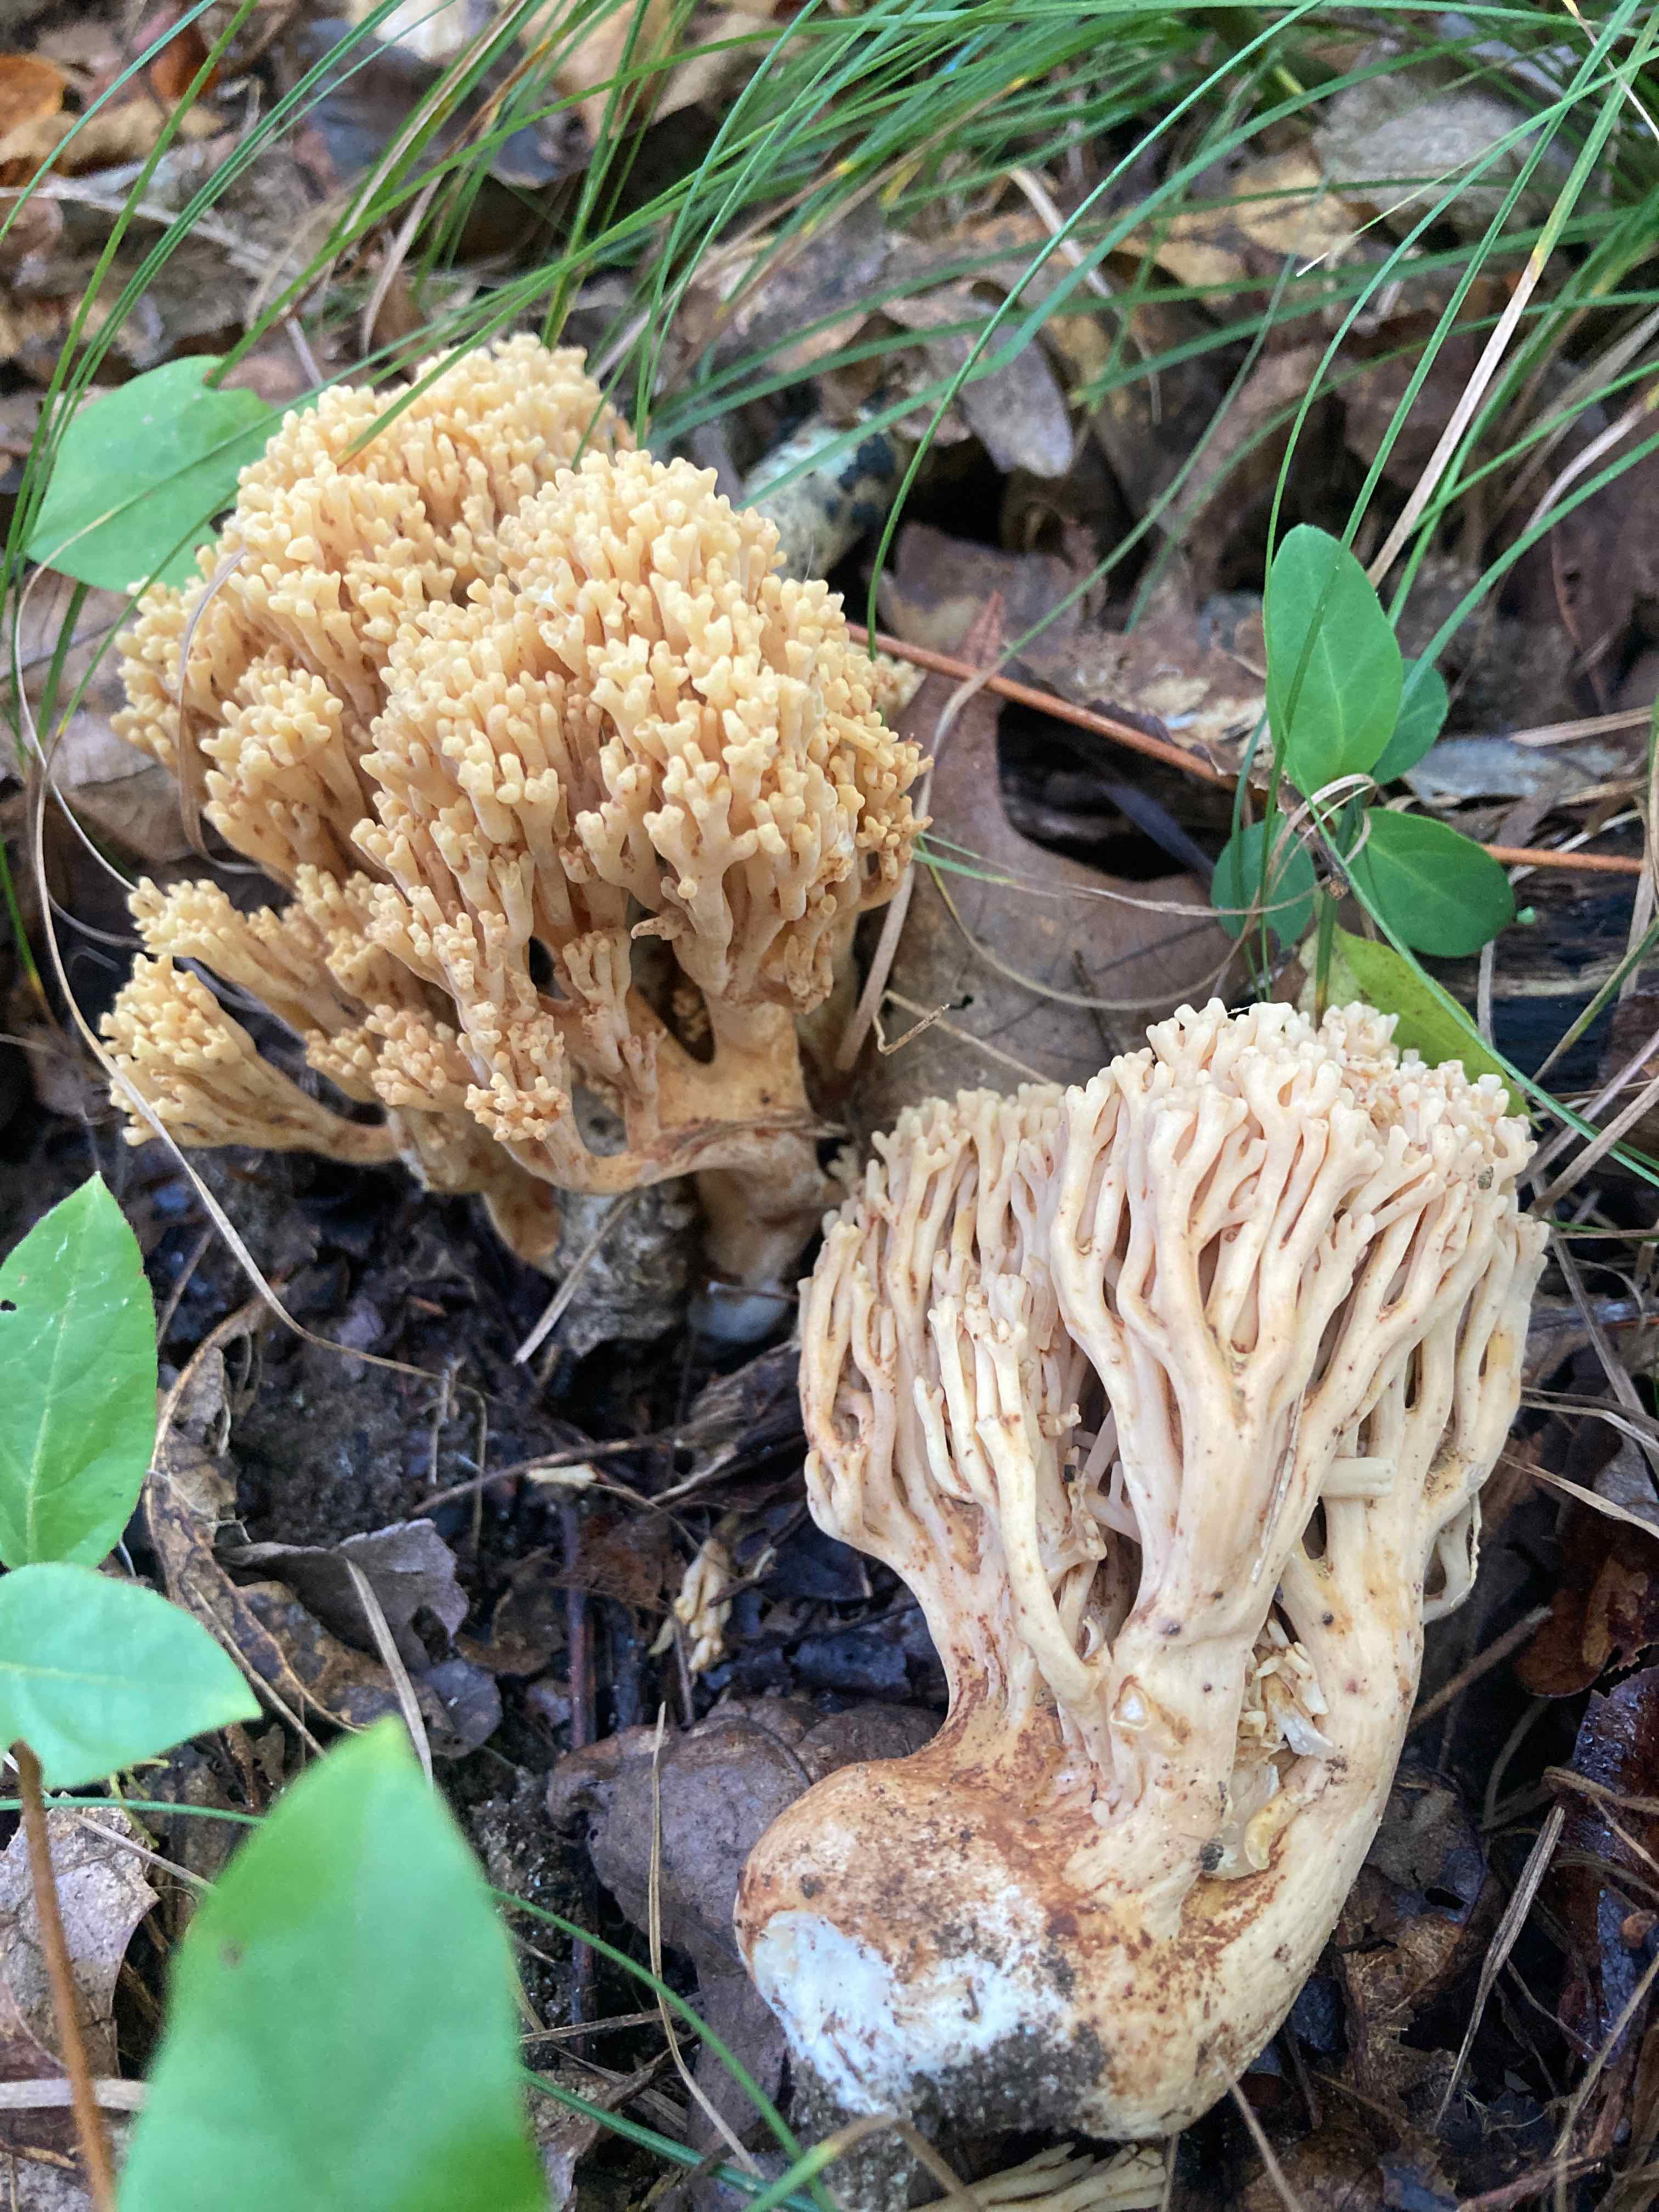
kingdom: Fungi
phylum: Basidiomycota
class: Agaricomycetes
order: Gomphales
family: Gomphaceae
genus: Ramaria
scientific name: Ramaria
